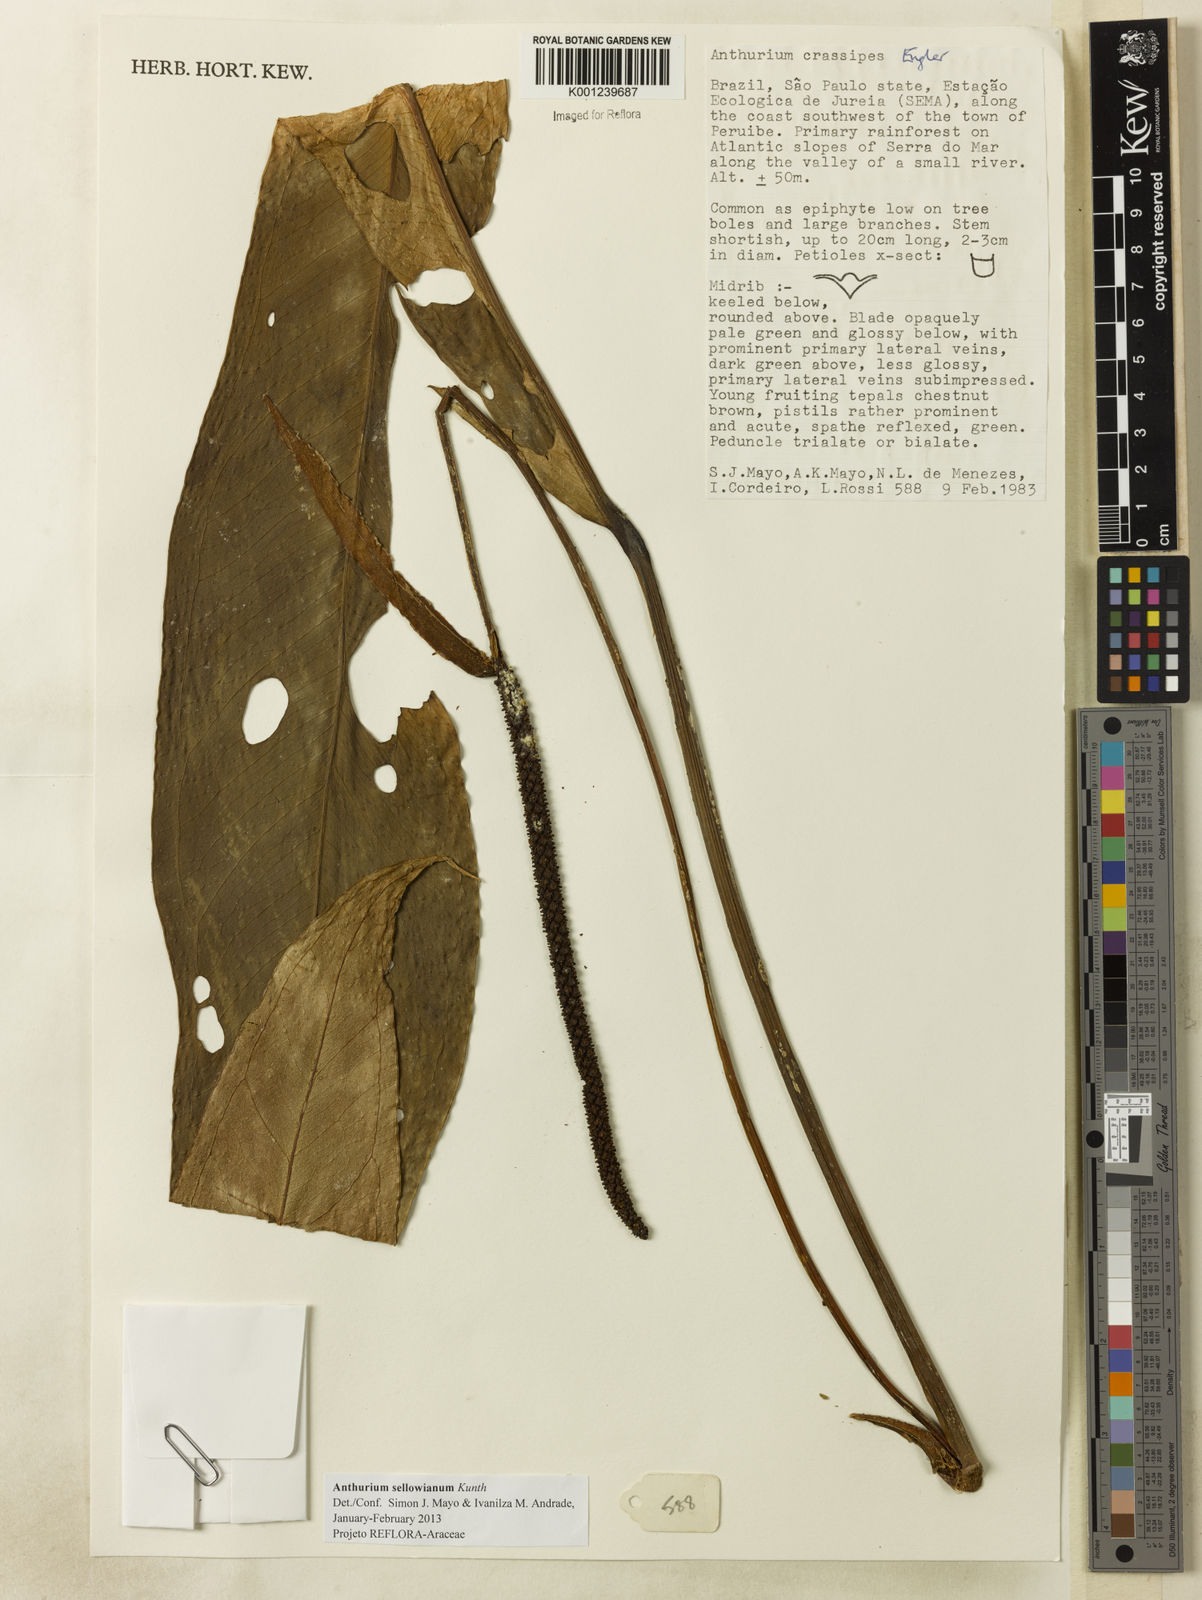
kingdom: Plantae
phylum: Tracheophyta
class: Liliopsida
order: Alismatales
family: Araceae
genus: Anthurium
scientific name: Anthurium sellowianum
